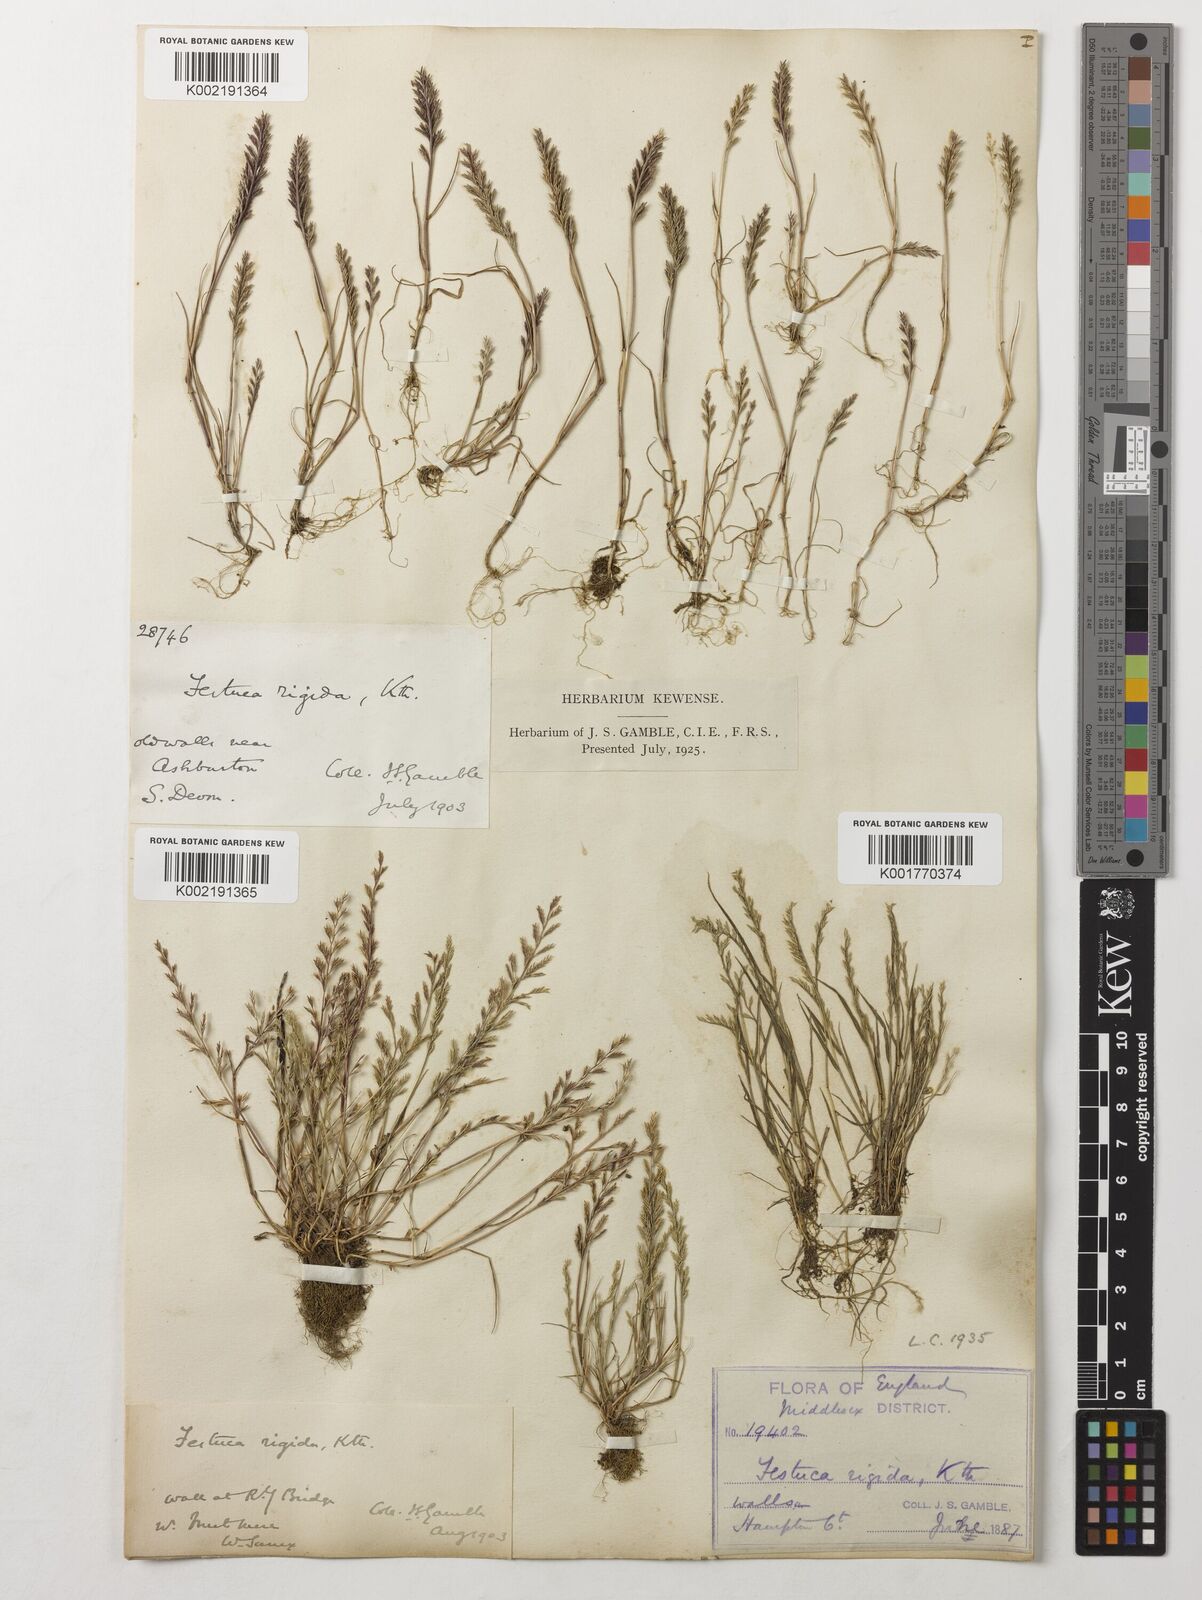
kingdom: Plantae
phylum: Tracheophyta
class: Liliopsida
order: Poales
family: Poaceae
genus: Catapodium
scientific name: Catapodium rigidum
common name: Fern-grass
